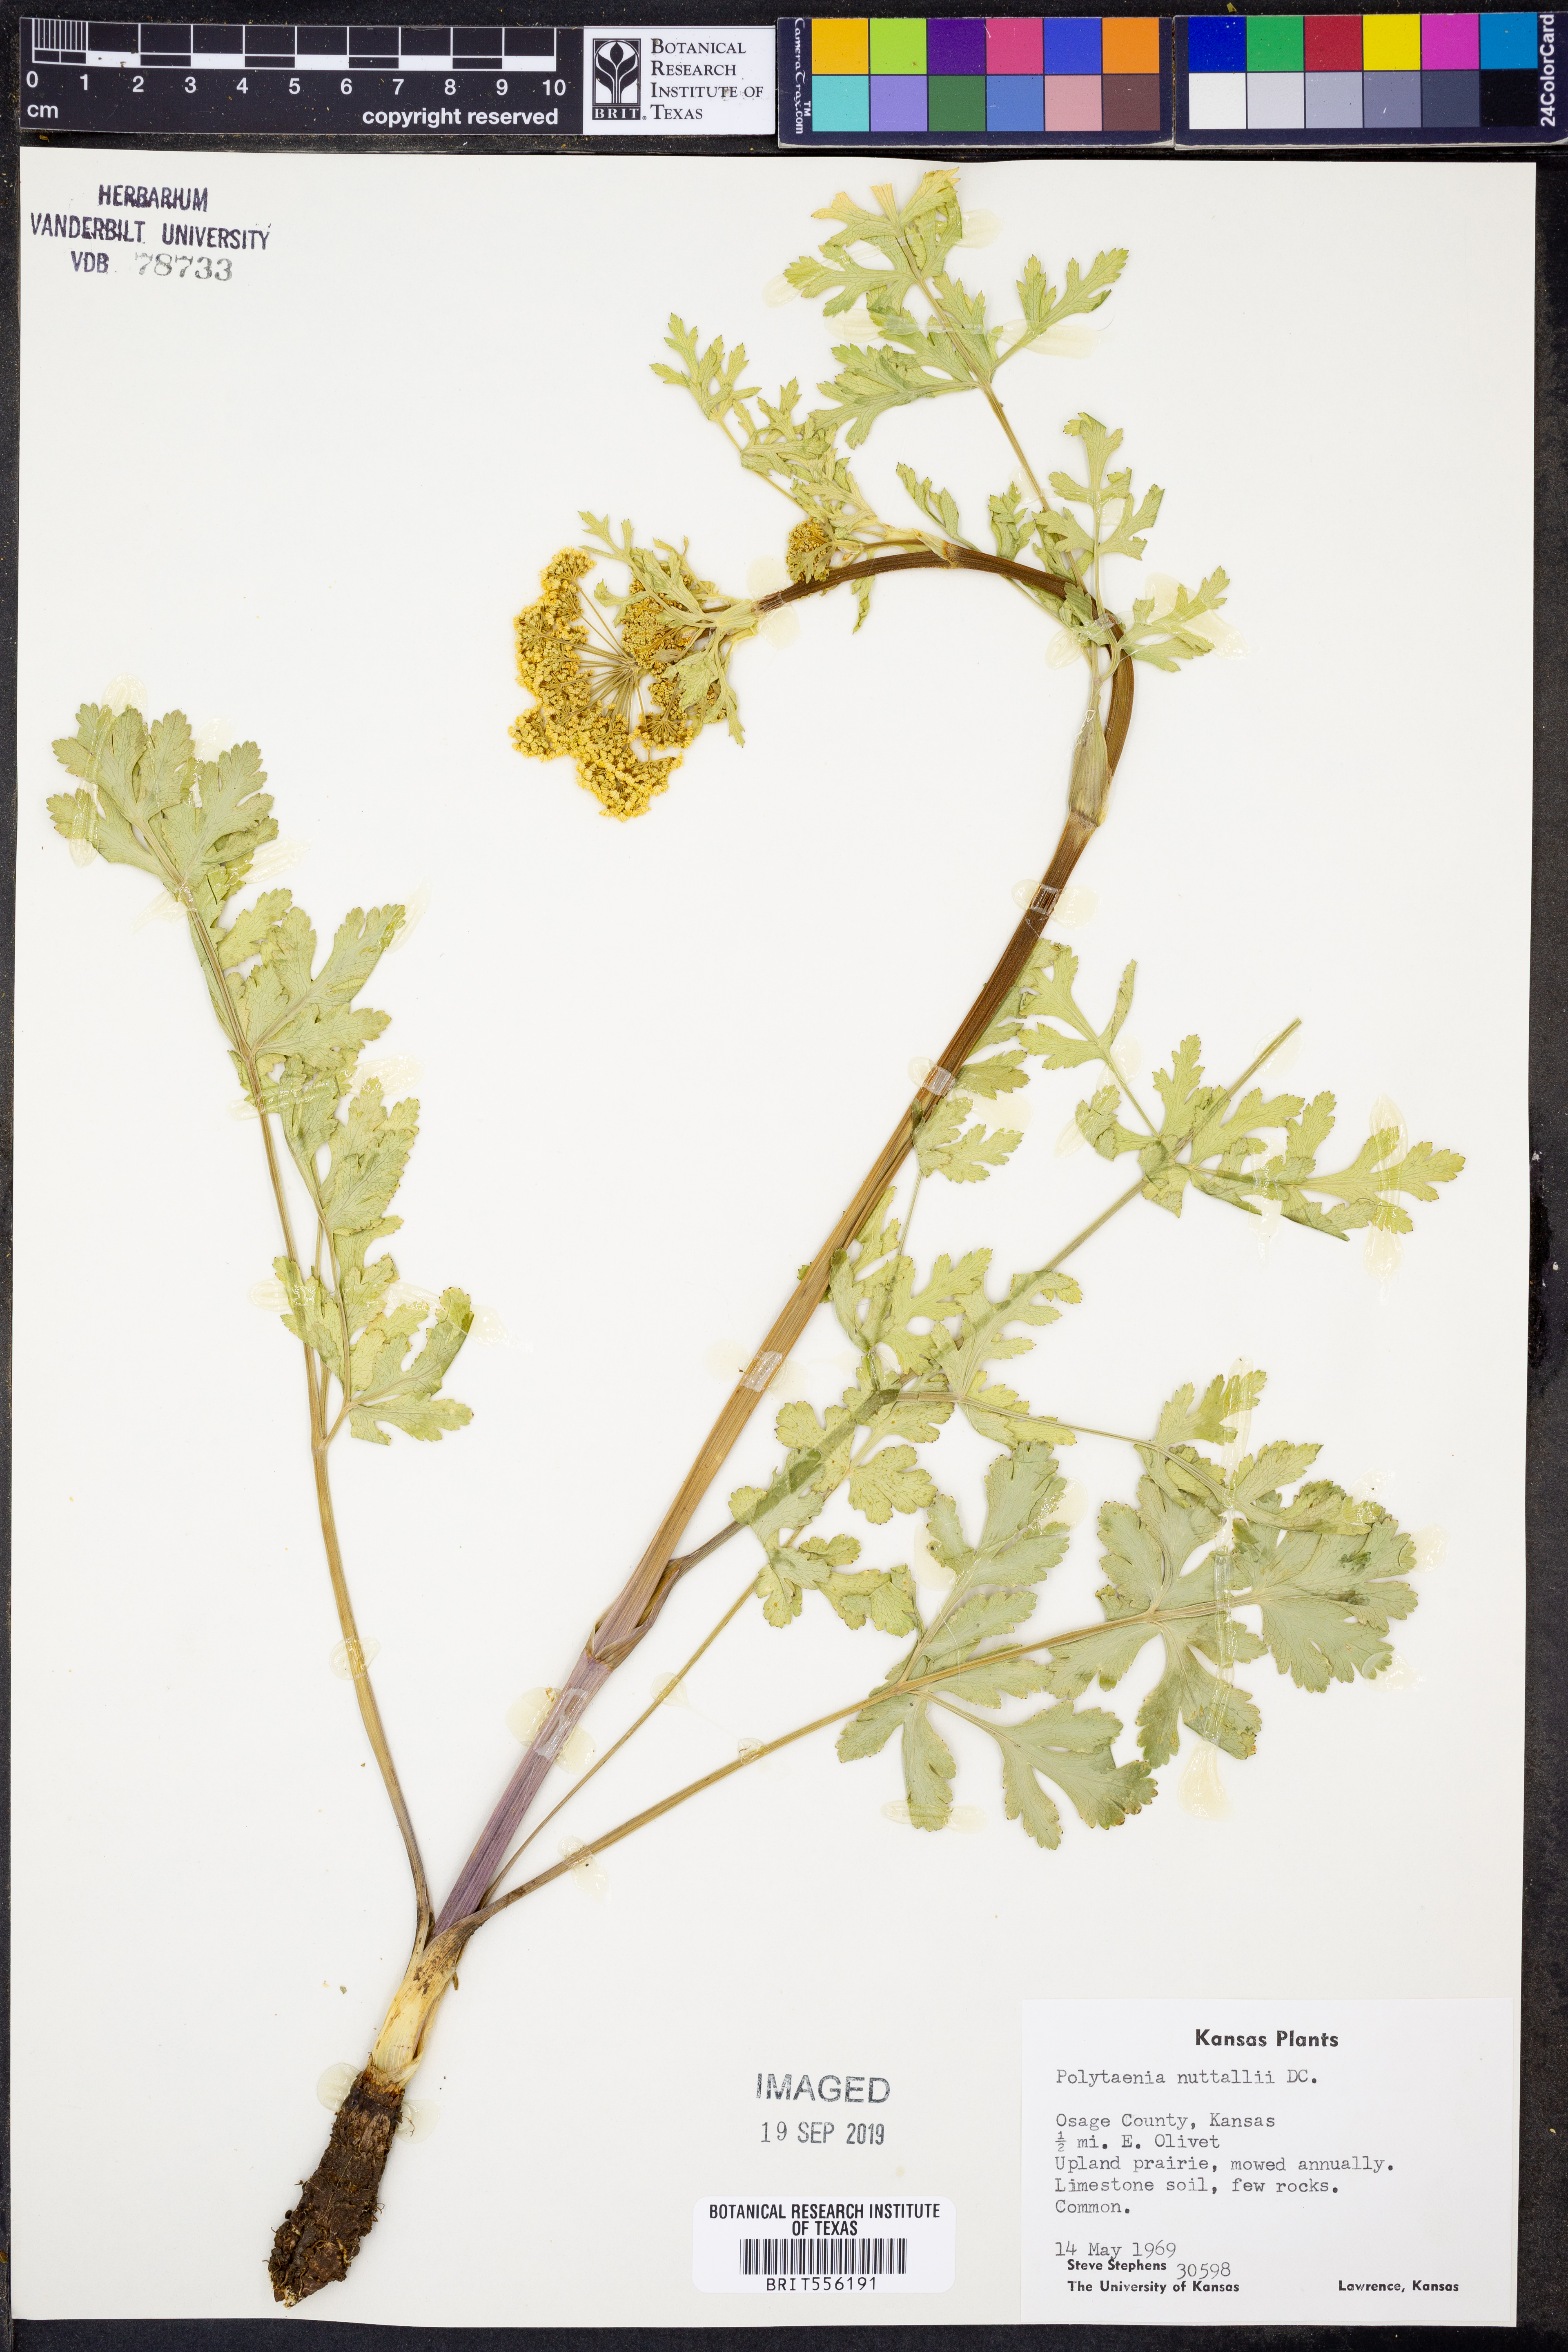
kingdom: Plantae
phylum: Tracheophyta
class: Magnoliopsida
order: Apiales
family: Apiaceae
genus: Polytaenia
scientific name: Polytaenia nuttallii
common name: Prairie-parsley
